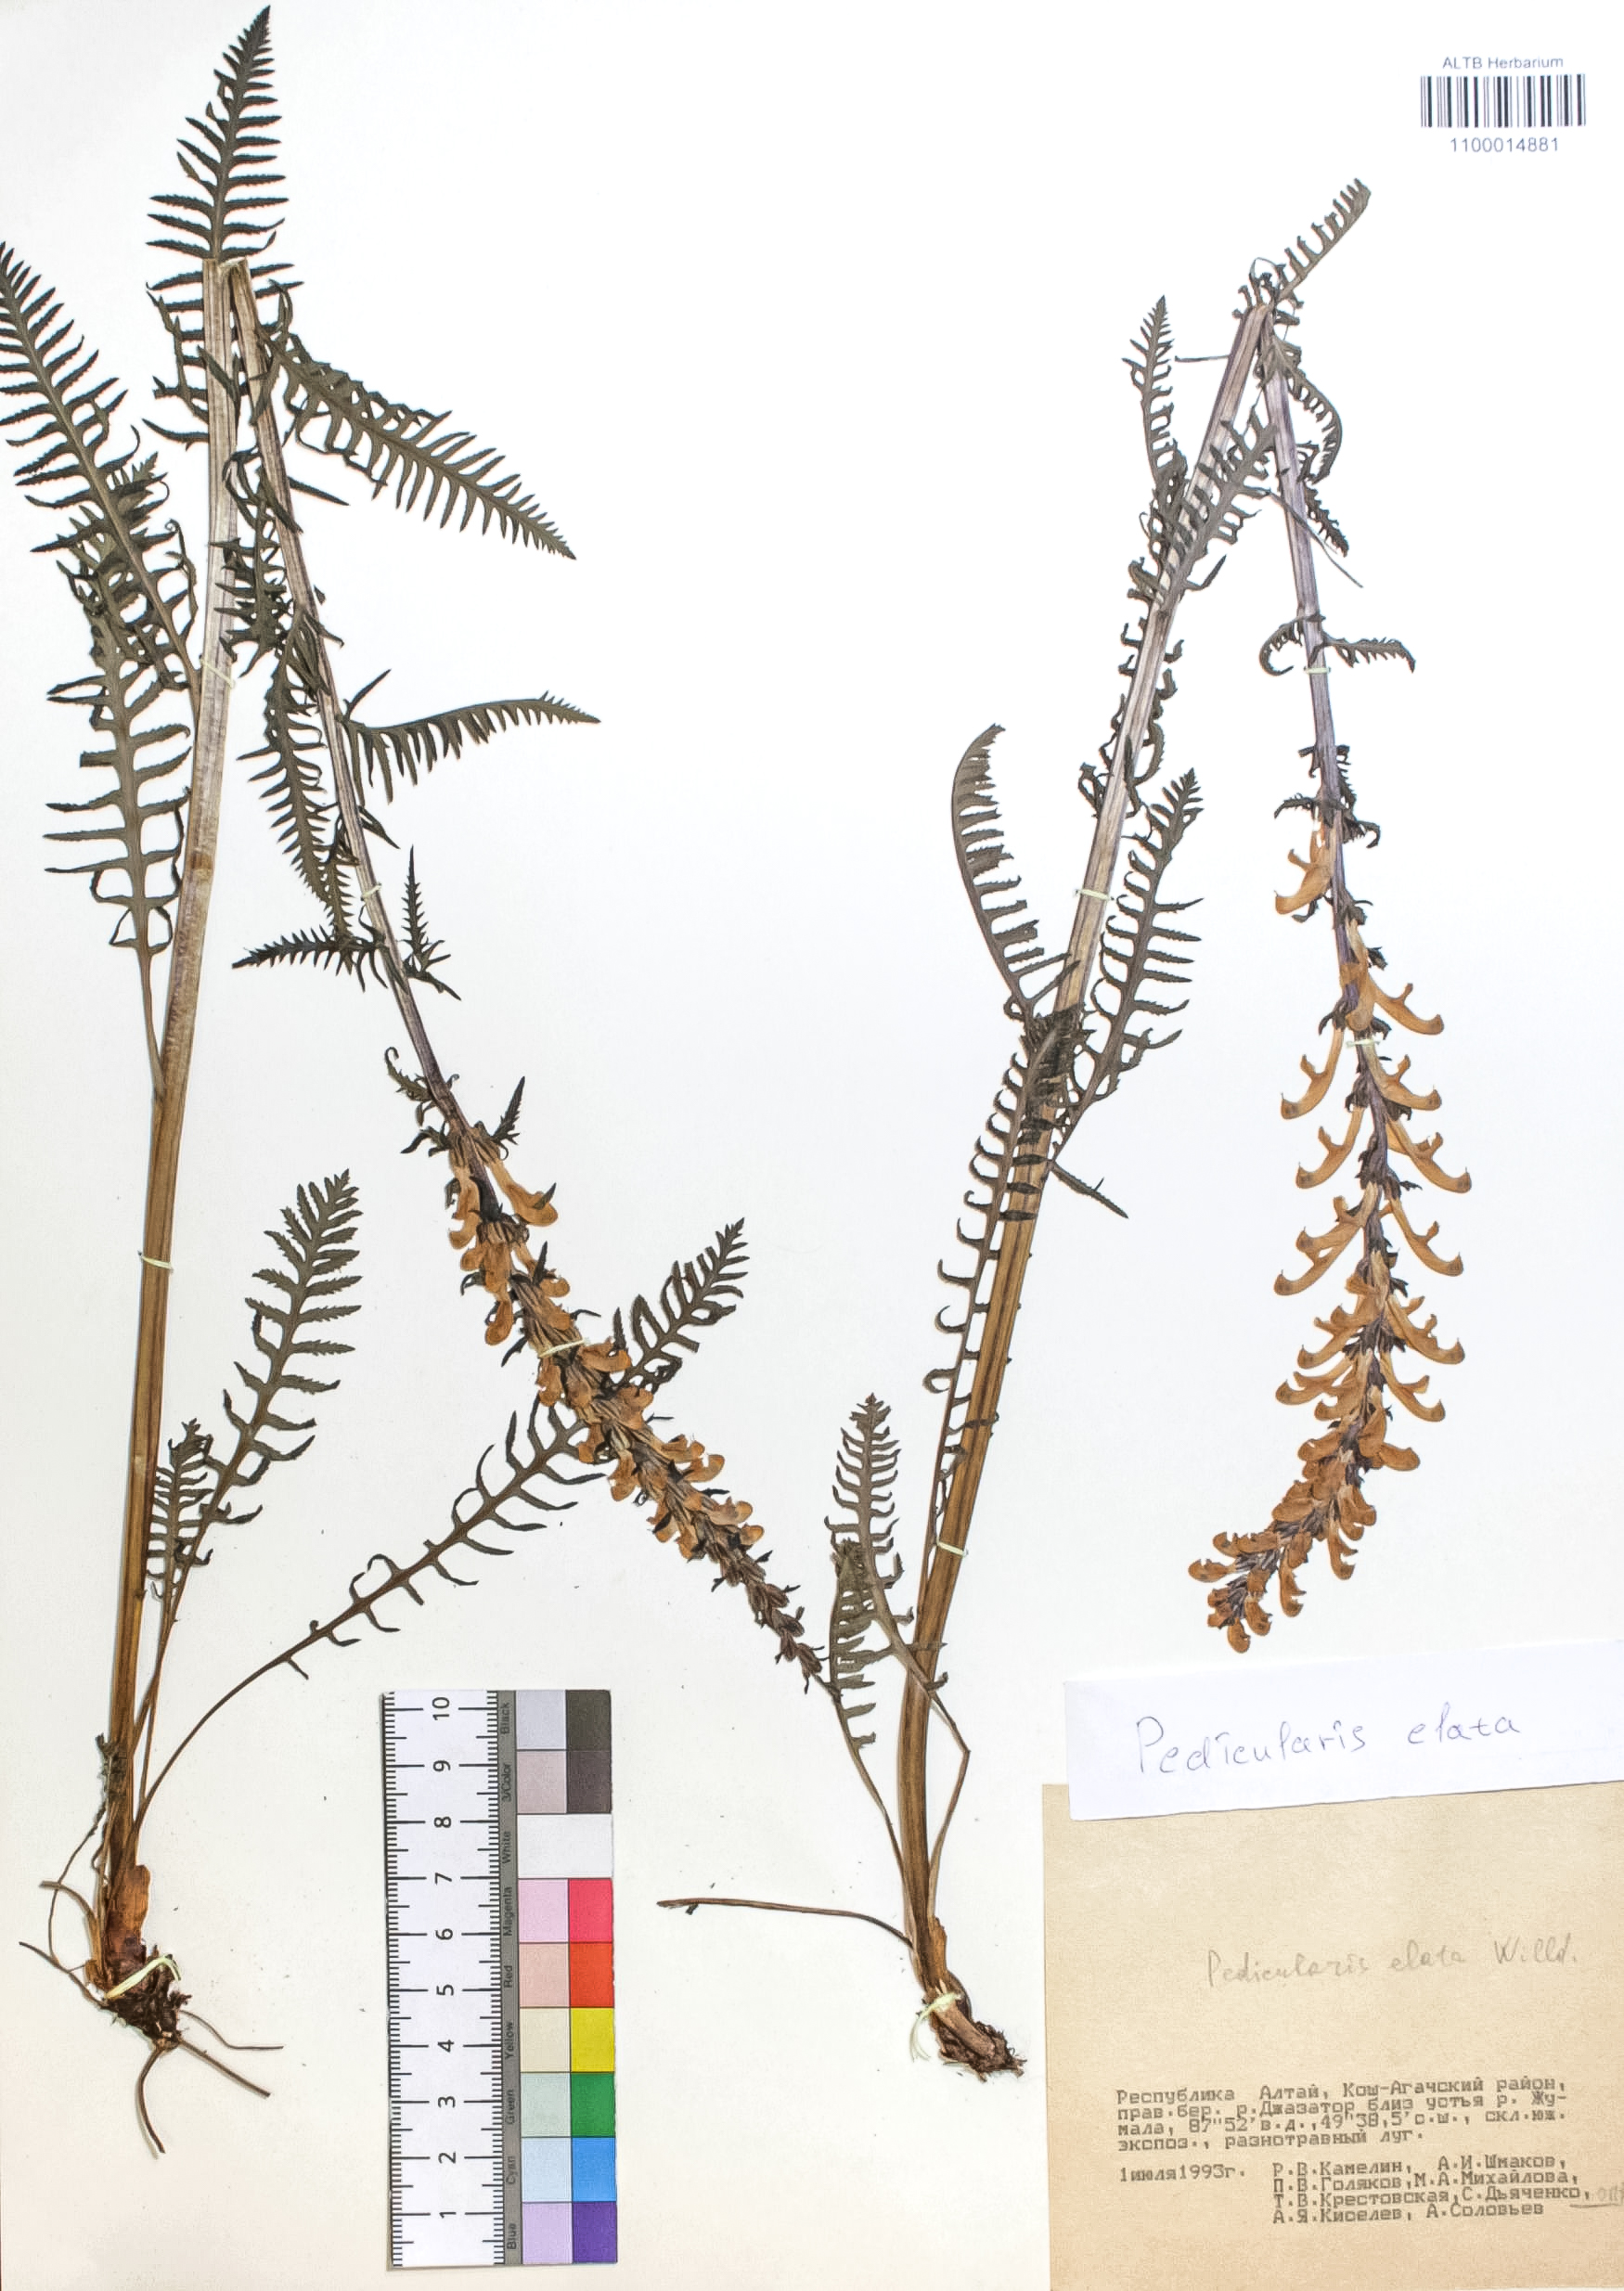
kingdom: Plantae
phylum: Tracheophyta
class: Magnoliopsida
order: Lamiales
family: Orobanchaceae
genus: Pedicularis
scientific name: Pedicularis elata
